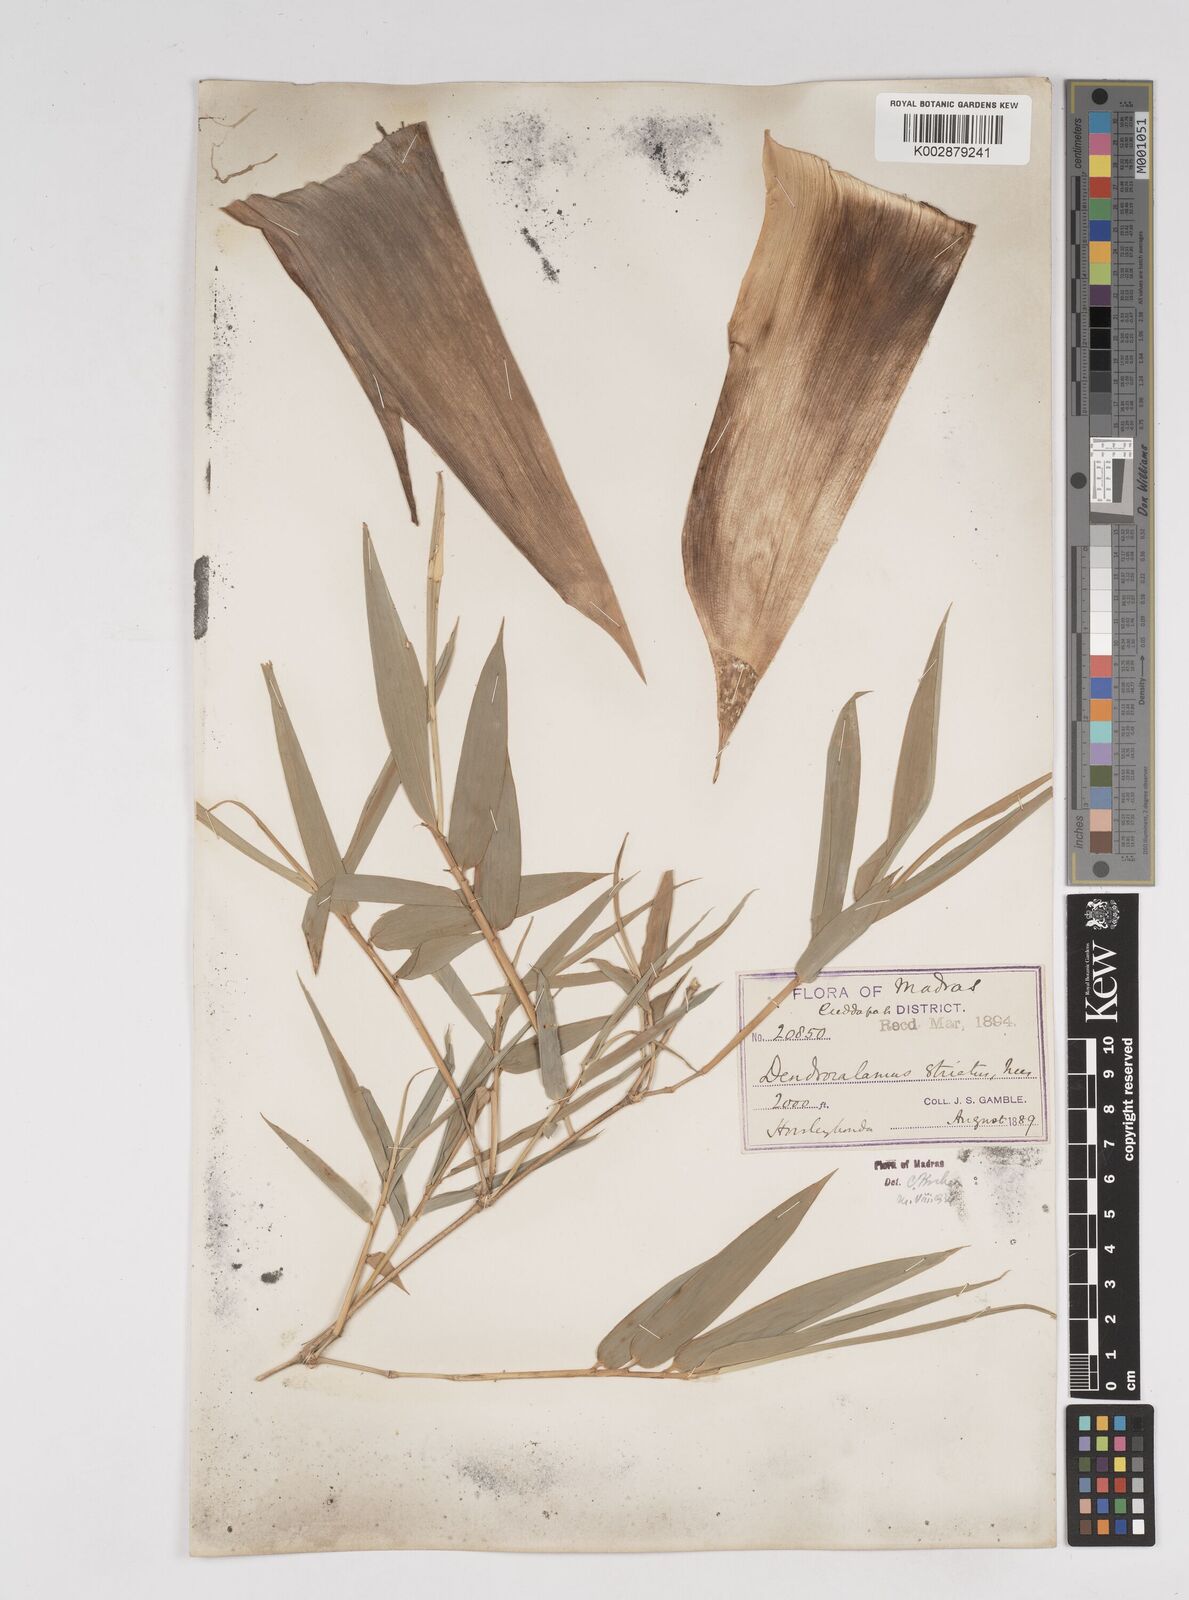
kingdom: Plantae
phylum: Tracheophyta
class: Liliopsida
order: Poales
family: Poaceae
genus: Dendrocalamus
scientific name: Dendrocalamus strictus
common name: Male bamboo
